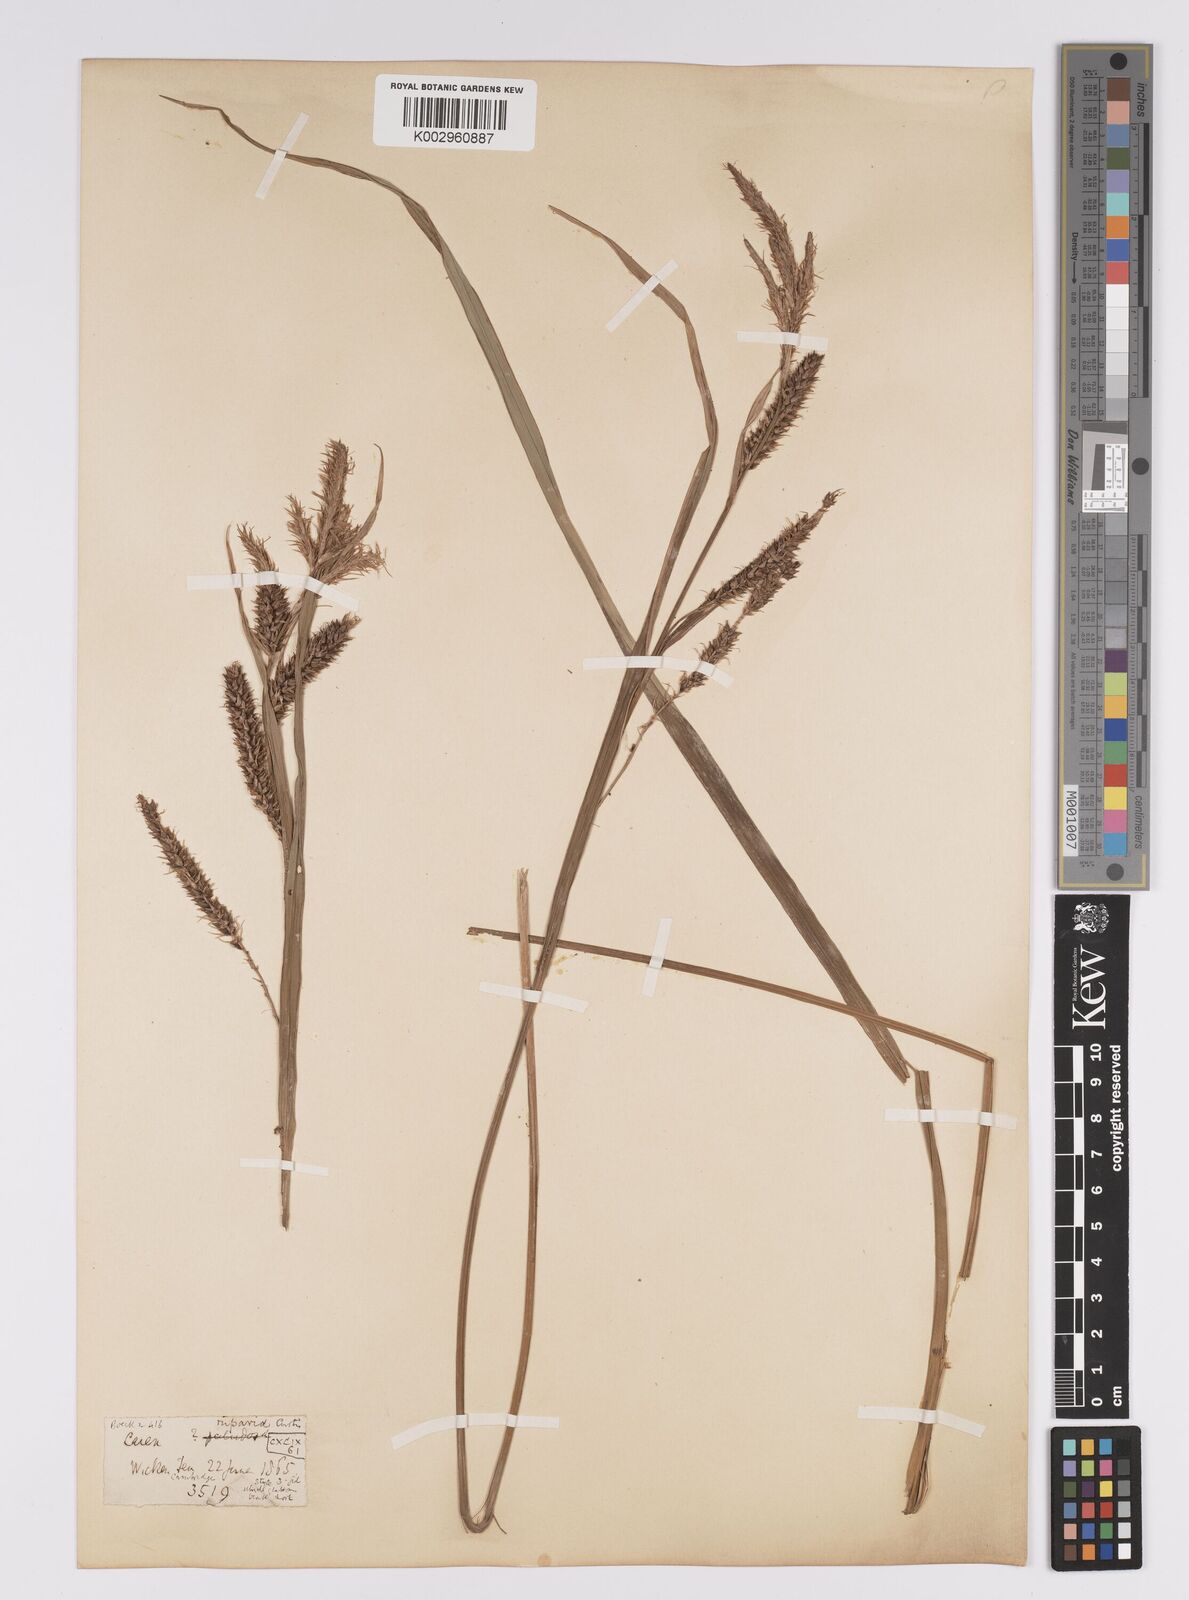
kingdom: Plantae
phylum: Tracheophyta
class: Liliopsida
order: Poales
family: Cyperaceae
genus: Carex
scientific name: Carex riparia
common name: Greater pond-sedge
